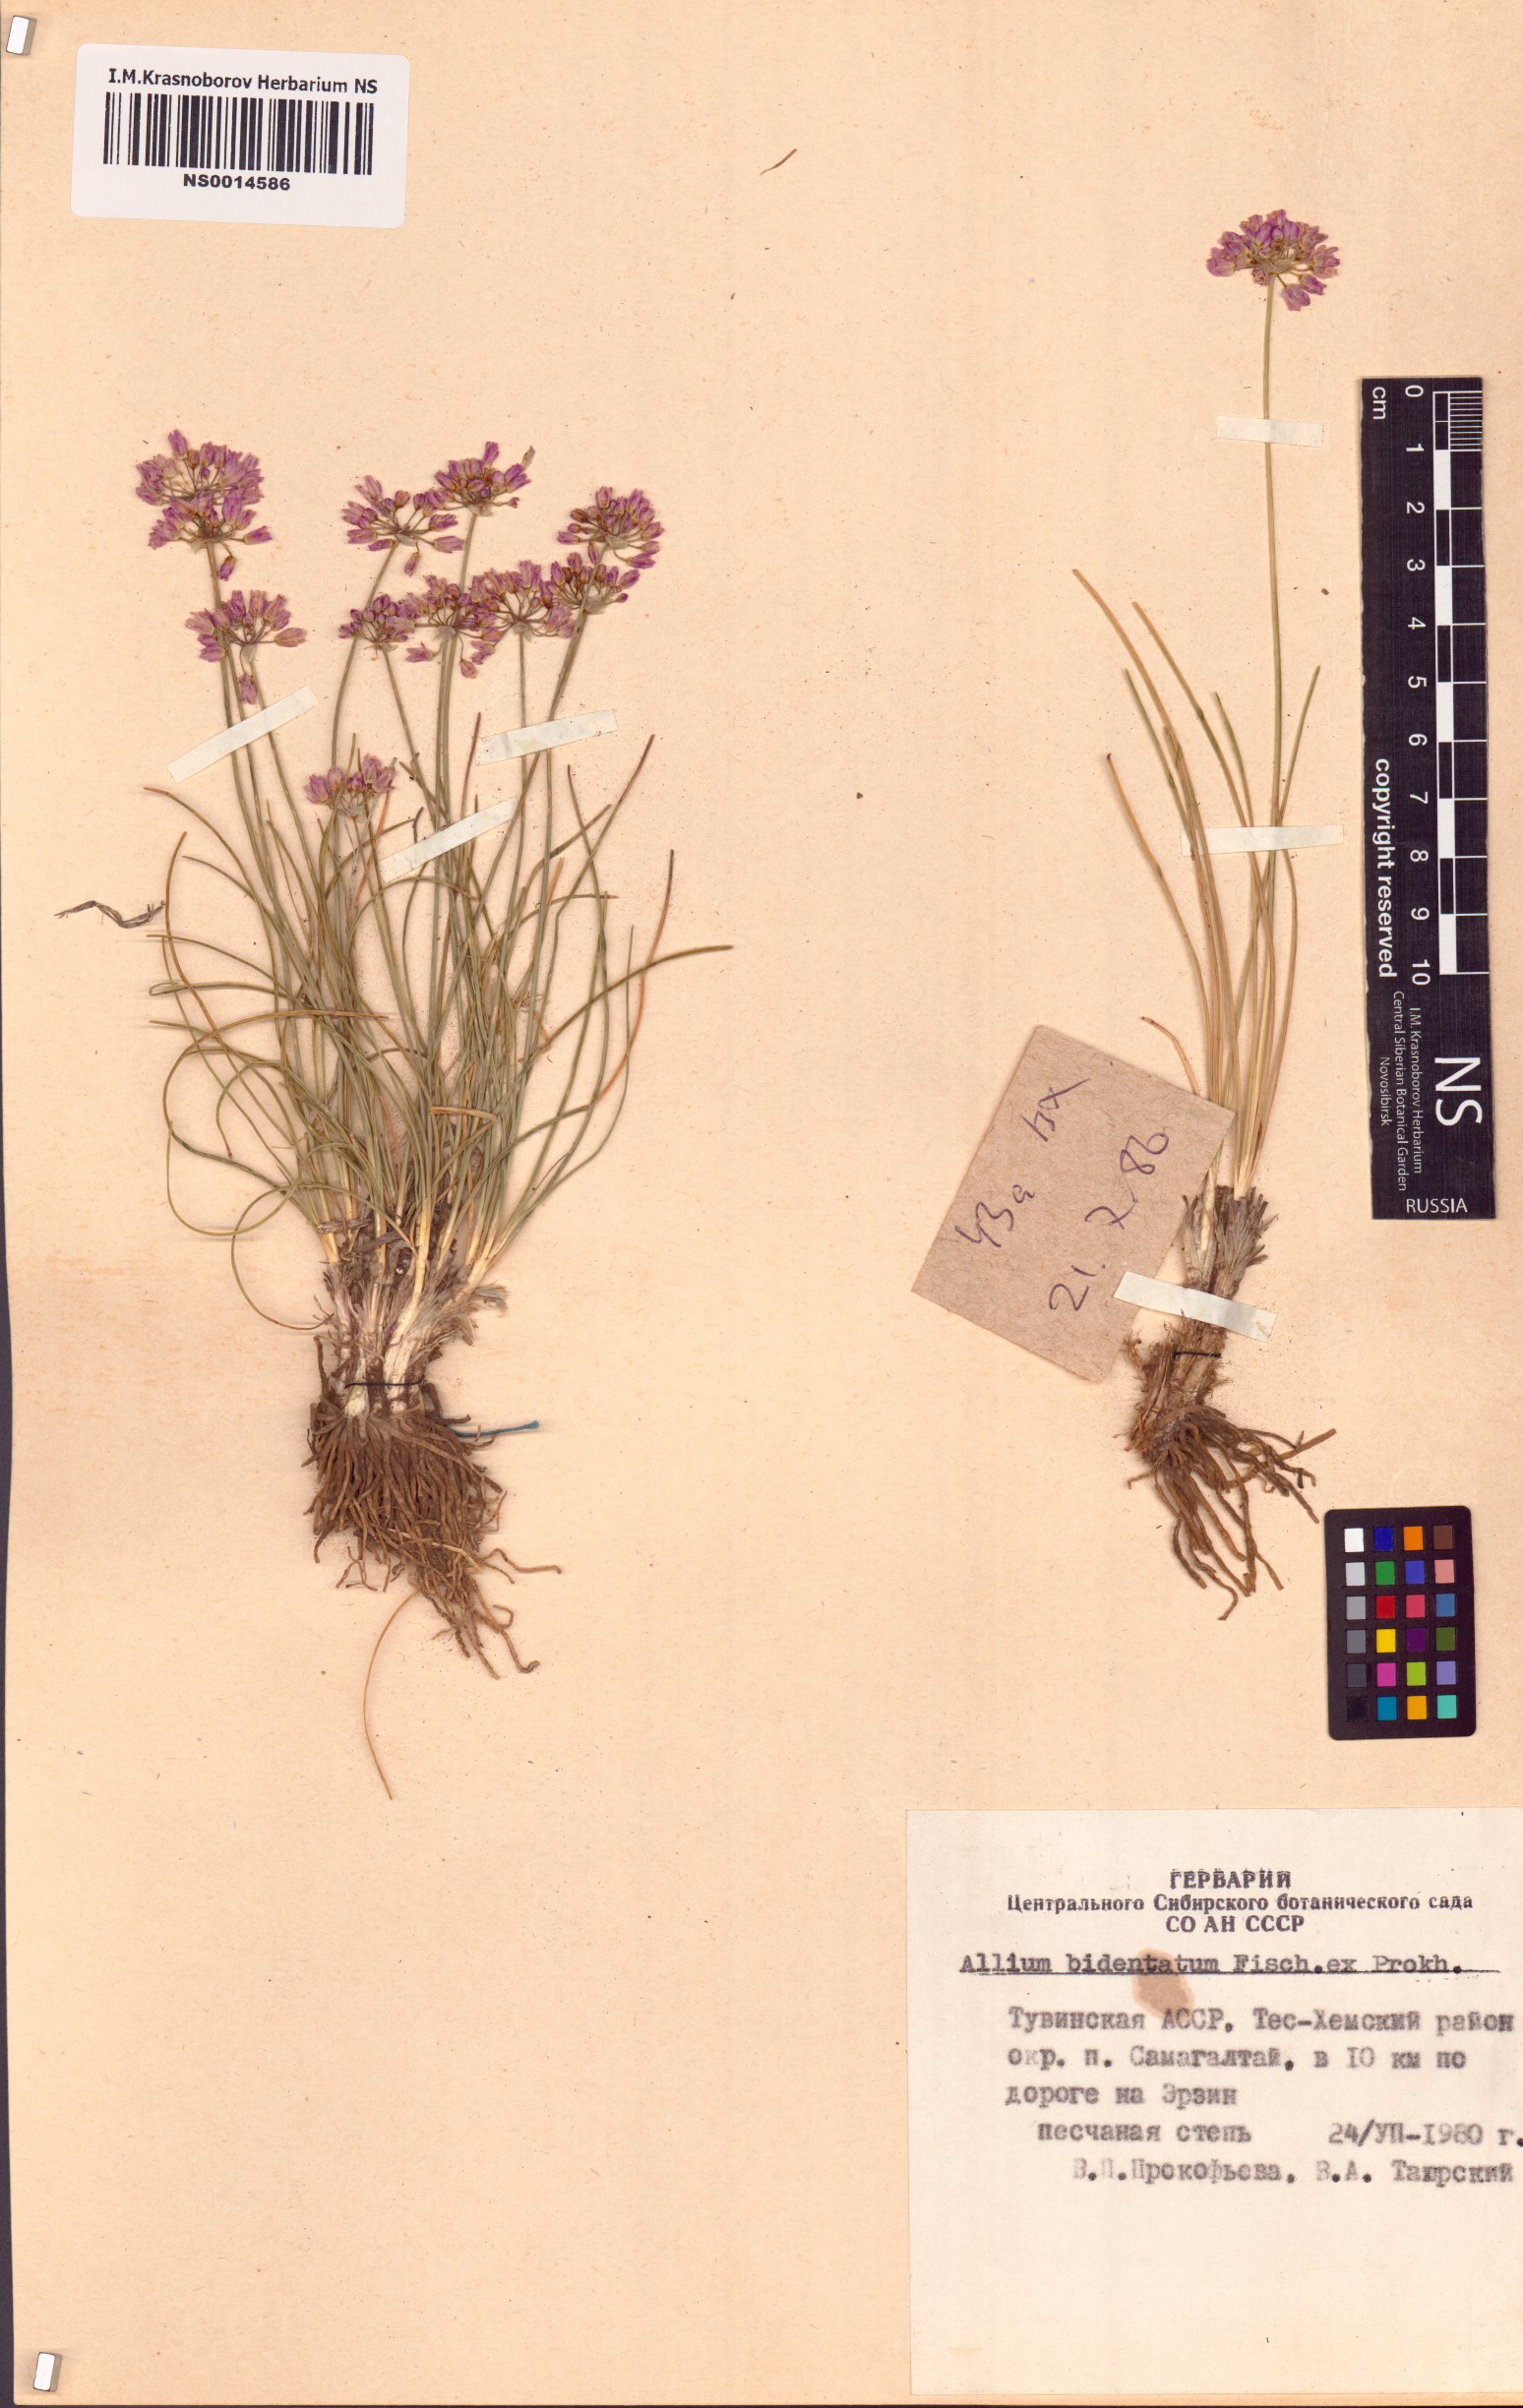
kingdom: Plantae
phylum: Tracheophyta
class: Liliopsida
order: Asparagales
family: Amaryllidaceae
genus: Allium
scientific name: Allium bidentatum
